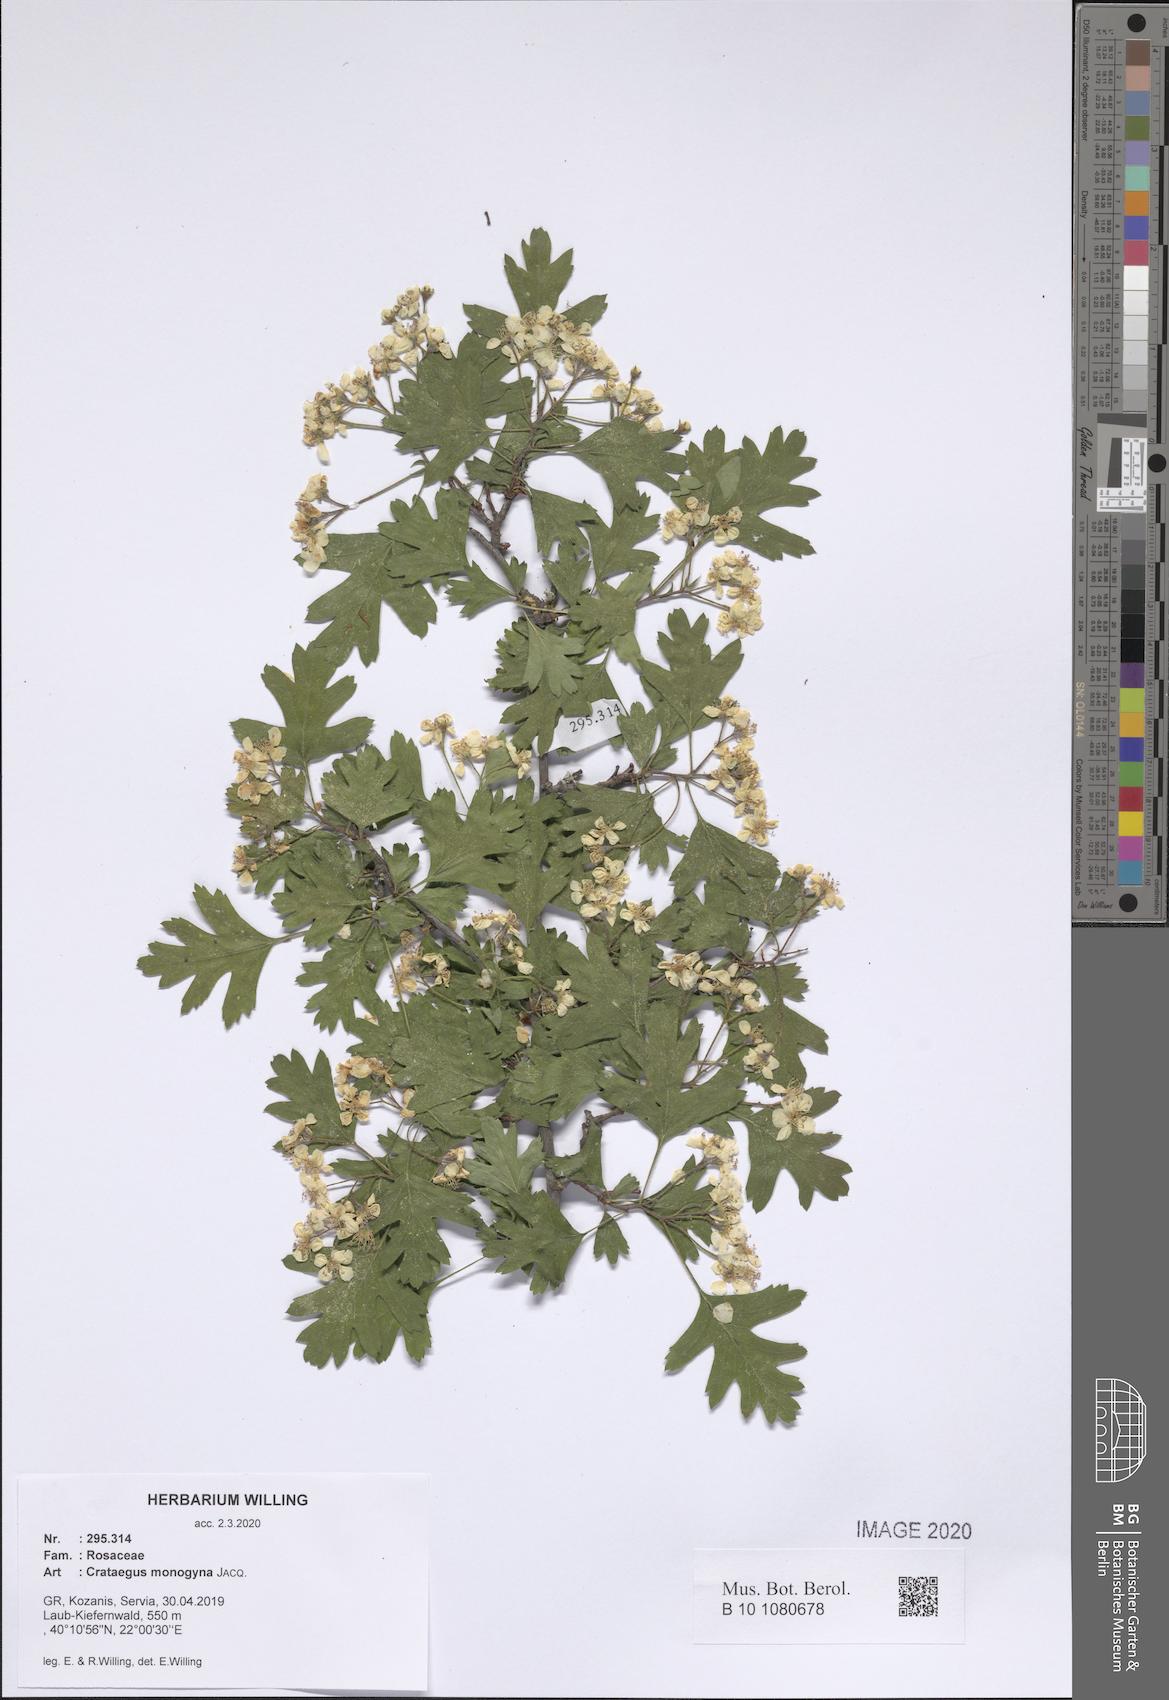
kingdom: Plantae
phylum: Tracheophyta
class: Magnoliopsida
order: Rosales
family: Rosaceae
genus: Crataegus
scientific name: Crataegus monogyna
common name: Hawthorn
